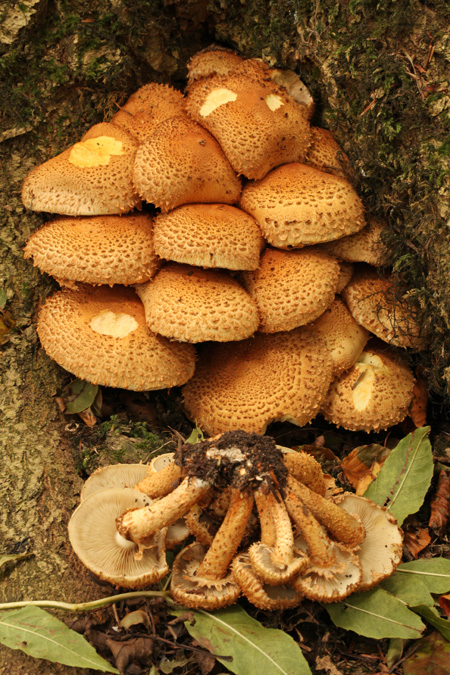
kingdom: Fungi
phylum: Basidiomycota
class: Agaricomycetes
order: Agaricales
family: Strophariaceae
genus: Pholiota
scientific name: Pholiota squarrosa
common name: krumskællet skælhat
